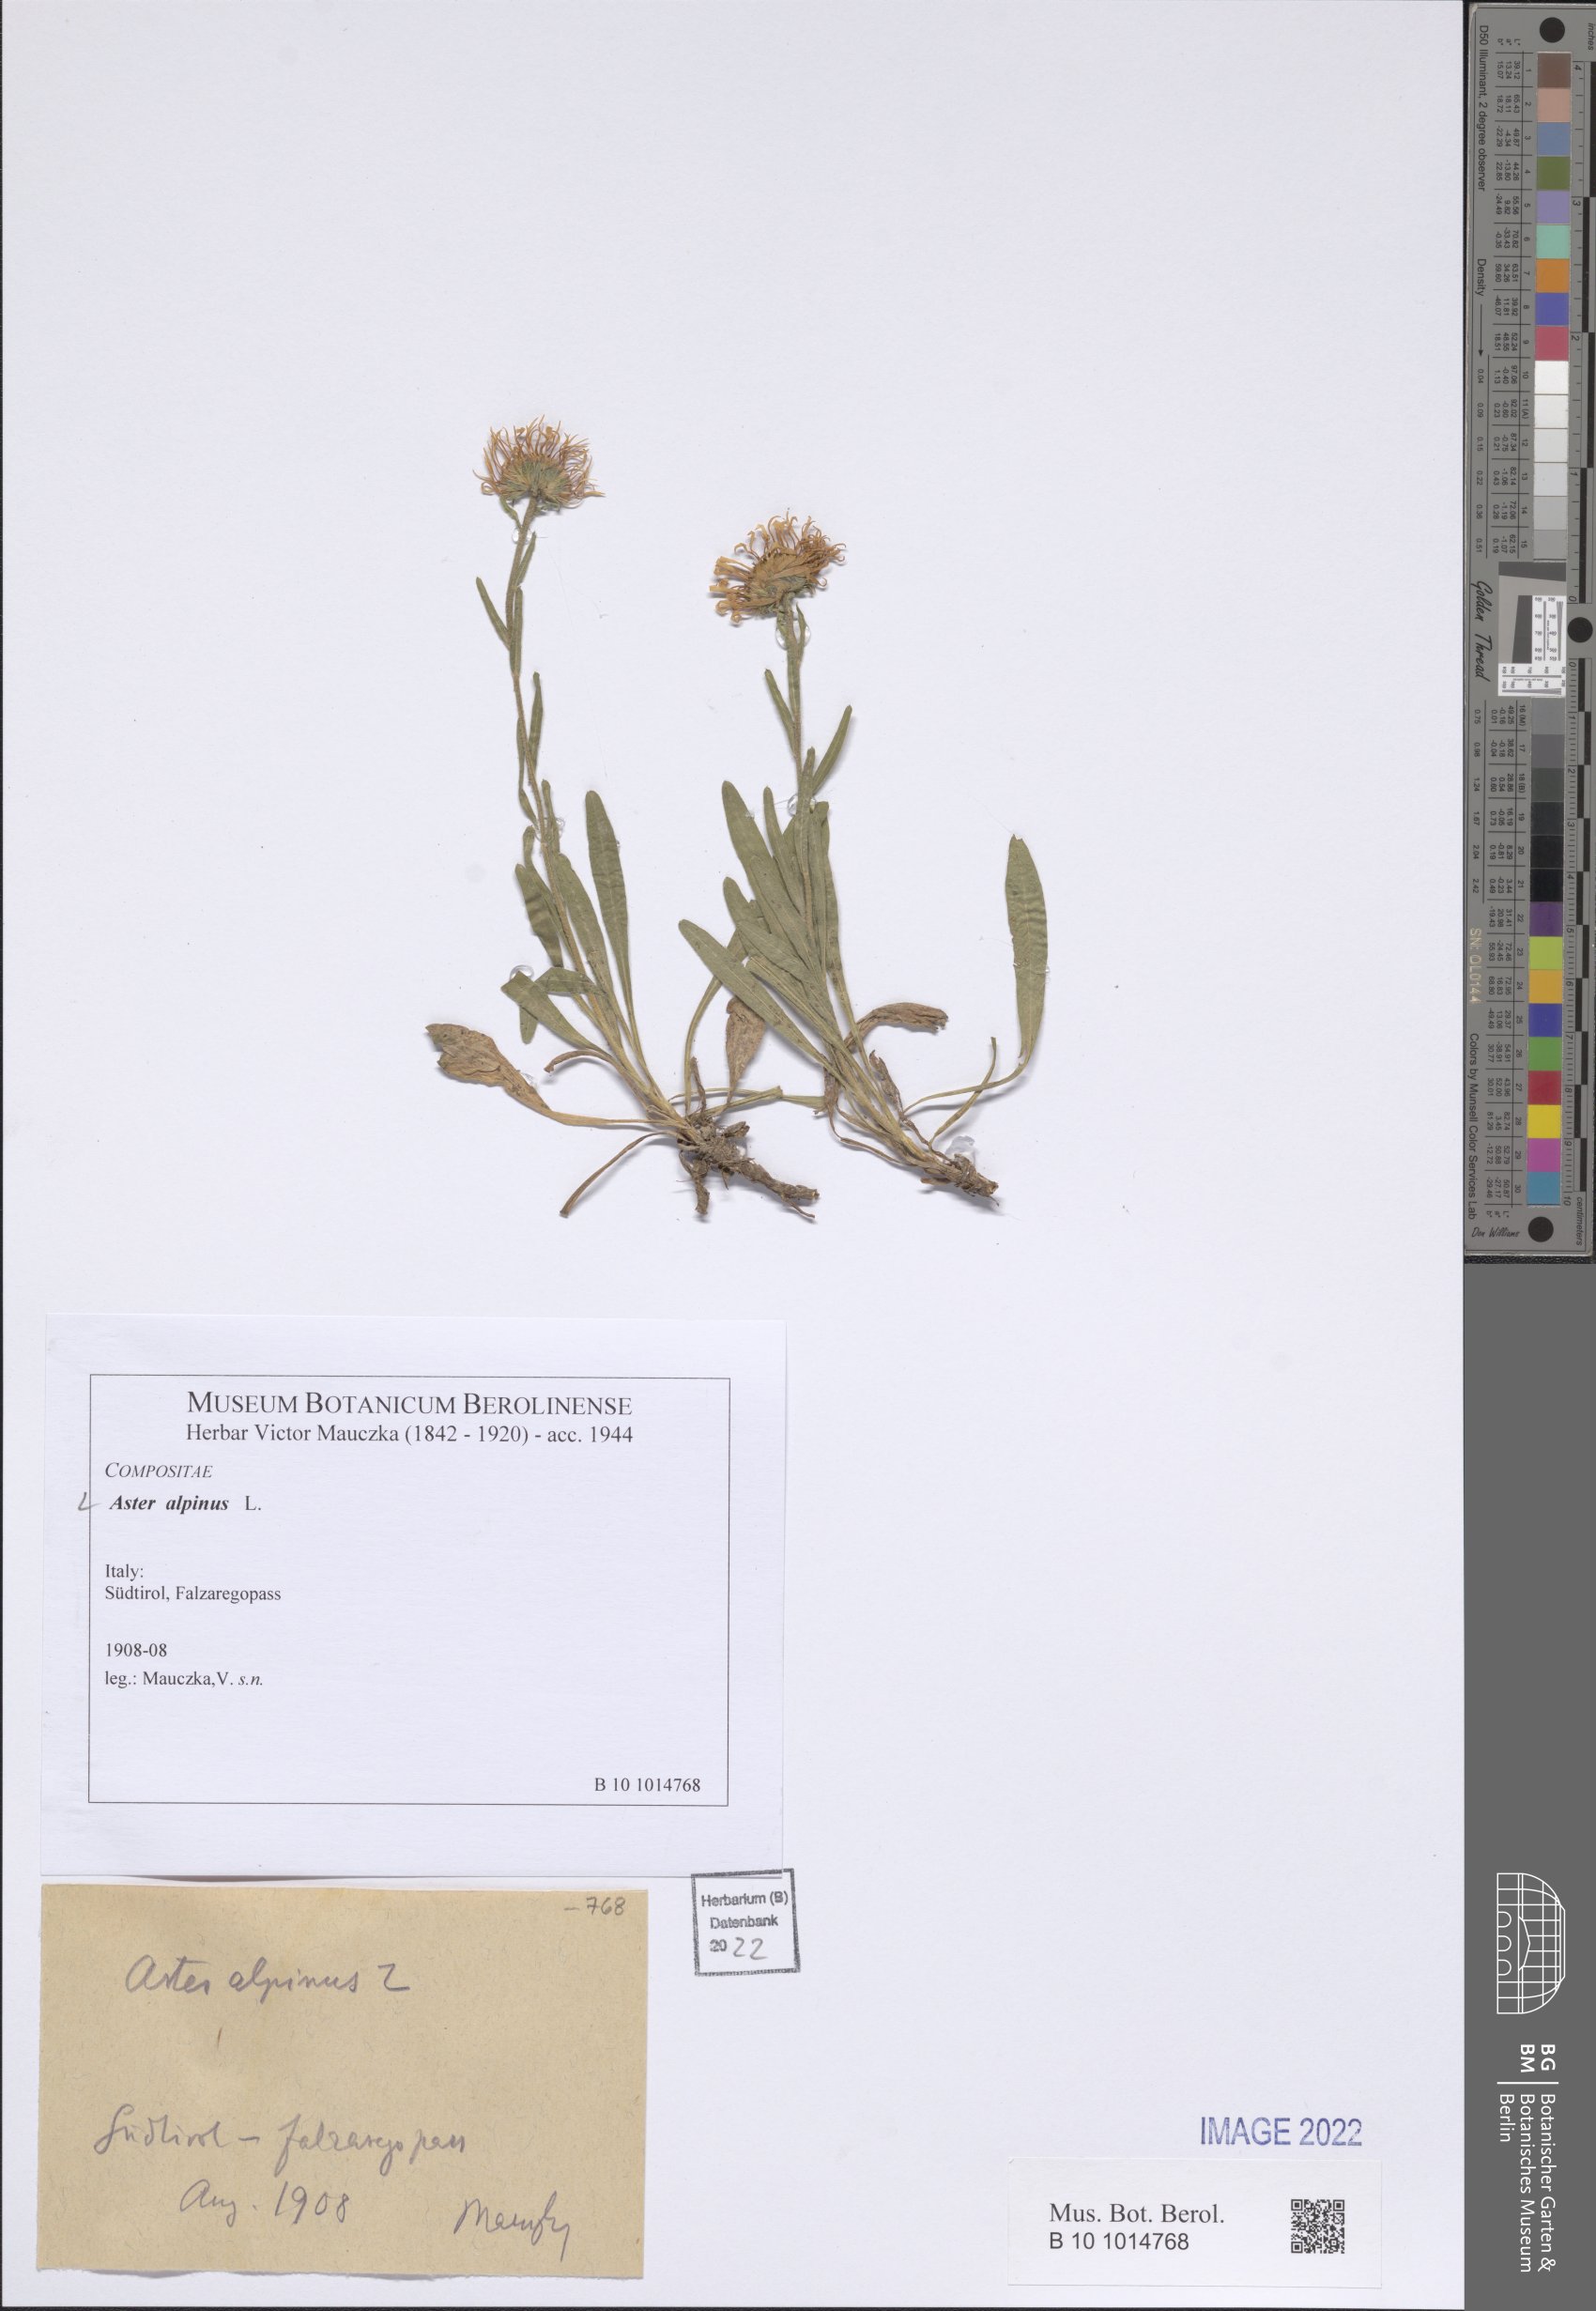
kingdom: Plantae
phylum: Tracheophyta
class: Magnoliopsida
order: Asterales
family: Asteraceae
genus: Aster
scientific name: Aster alpinus
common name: Alpine aster
